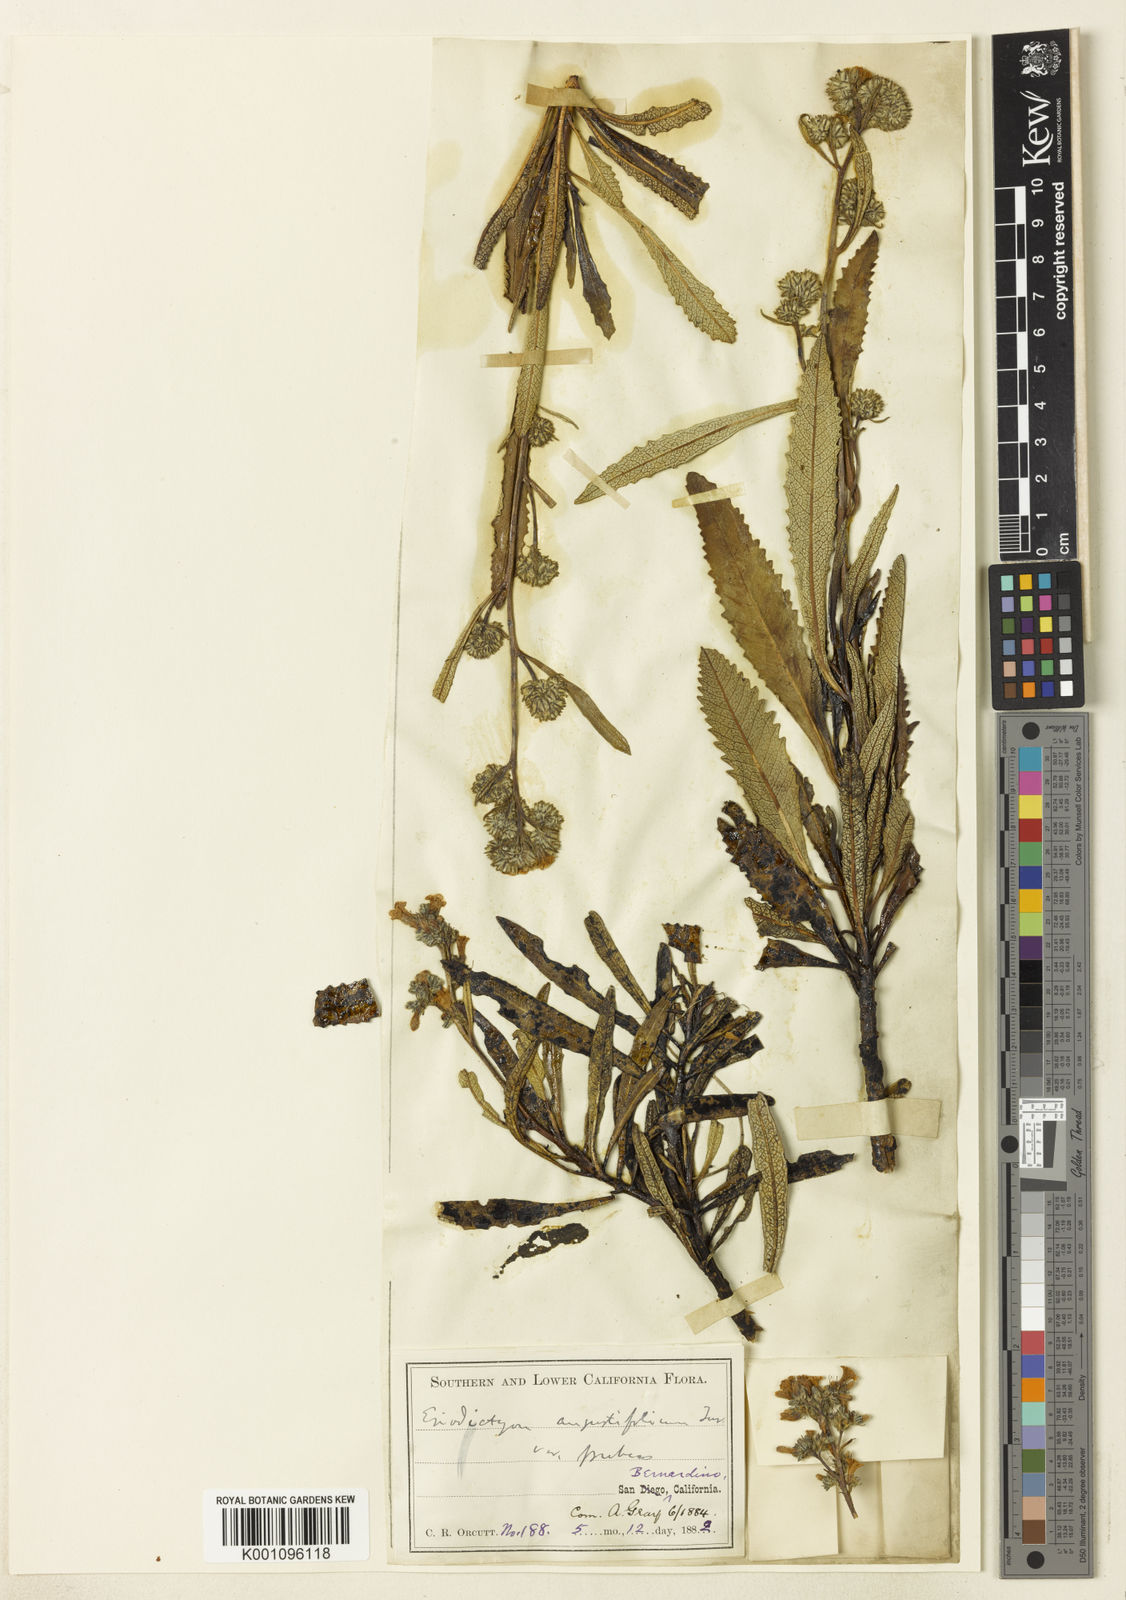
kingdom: Plantae
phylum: Tracheophyta
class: Magnoliopsida
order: Boraginales
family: Namaceae
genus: Eriodictyon
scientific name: Eriodictyon trichocalyx
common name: Hairy yerba-santa
